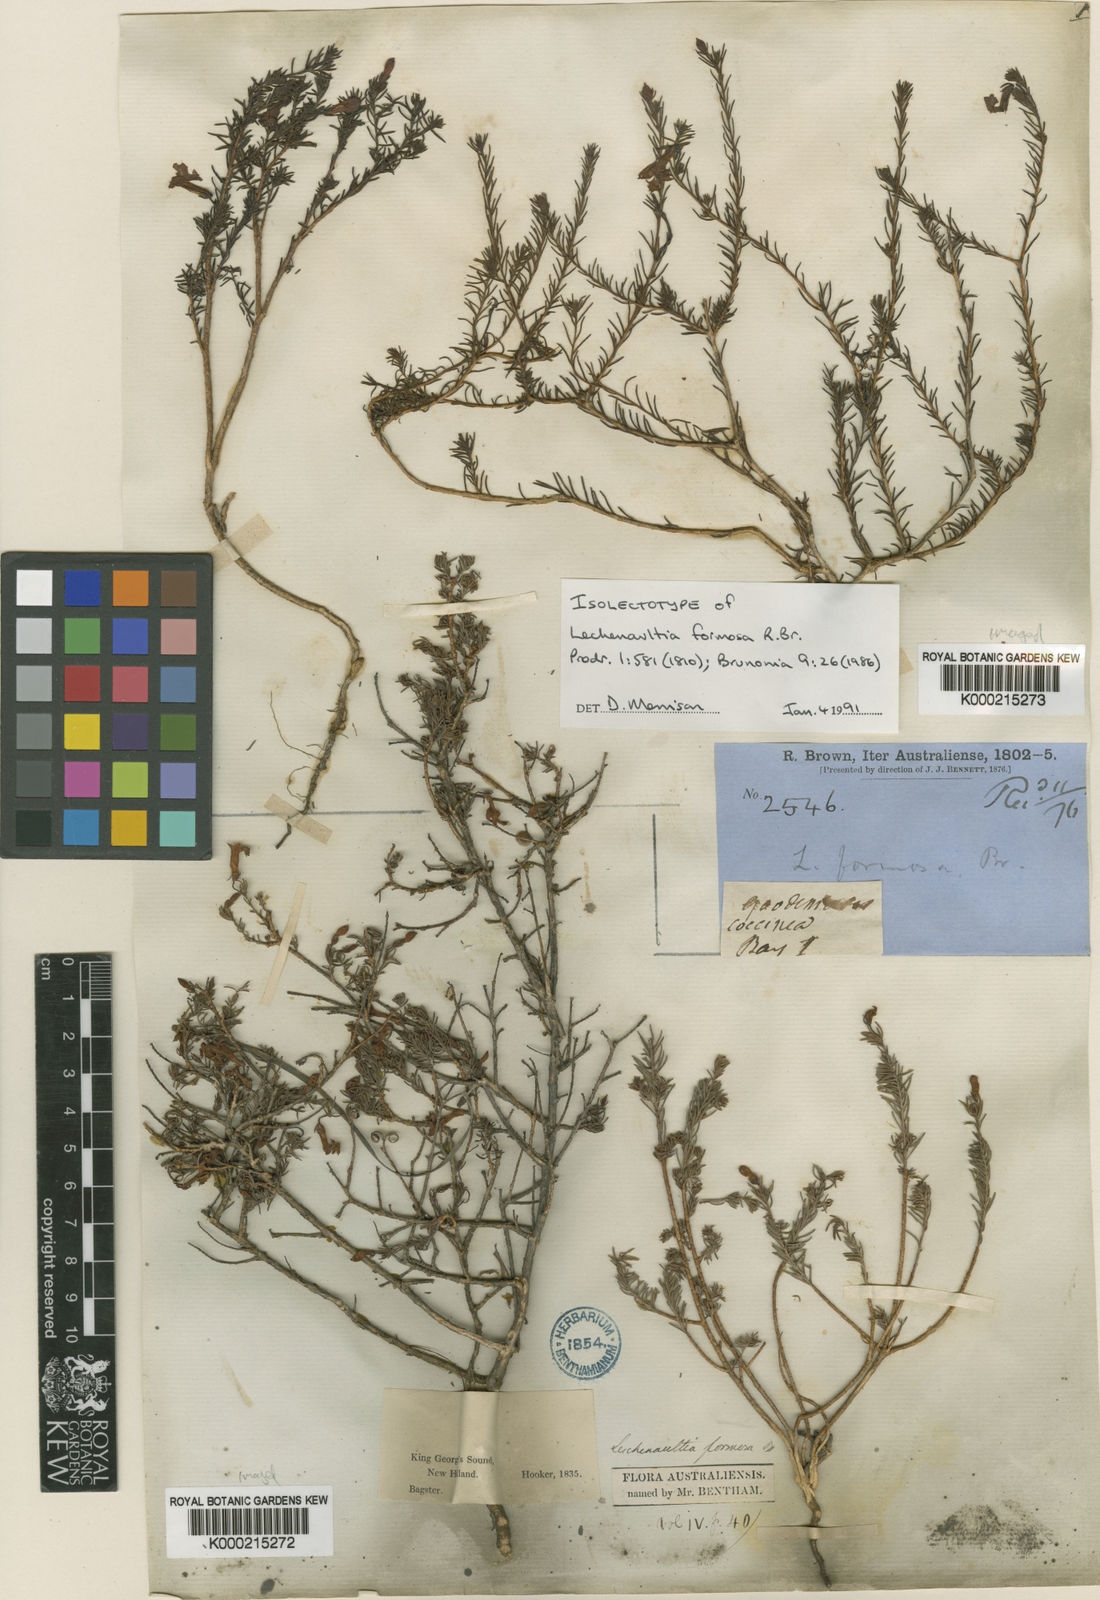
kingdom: Plantae
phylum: Tracheophyta
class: Magnoliopsida
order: Asterales
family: Goodeniaceae
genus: Leschenaultia
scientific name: Leschenaultia formosa
